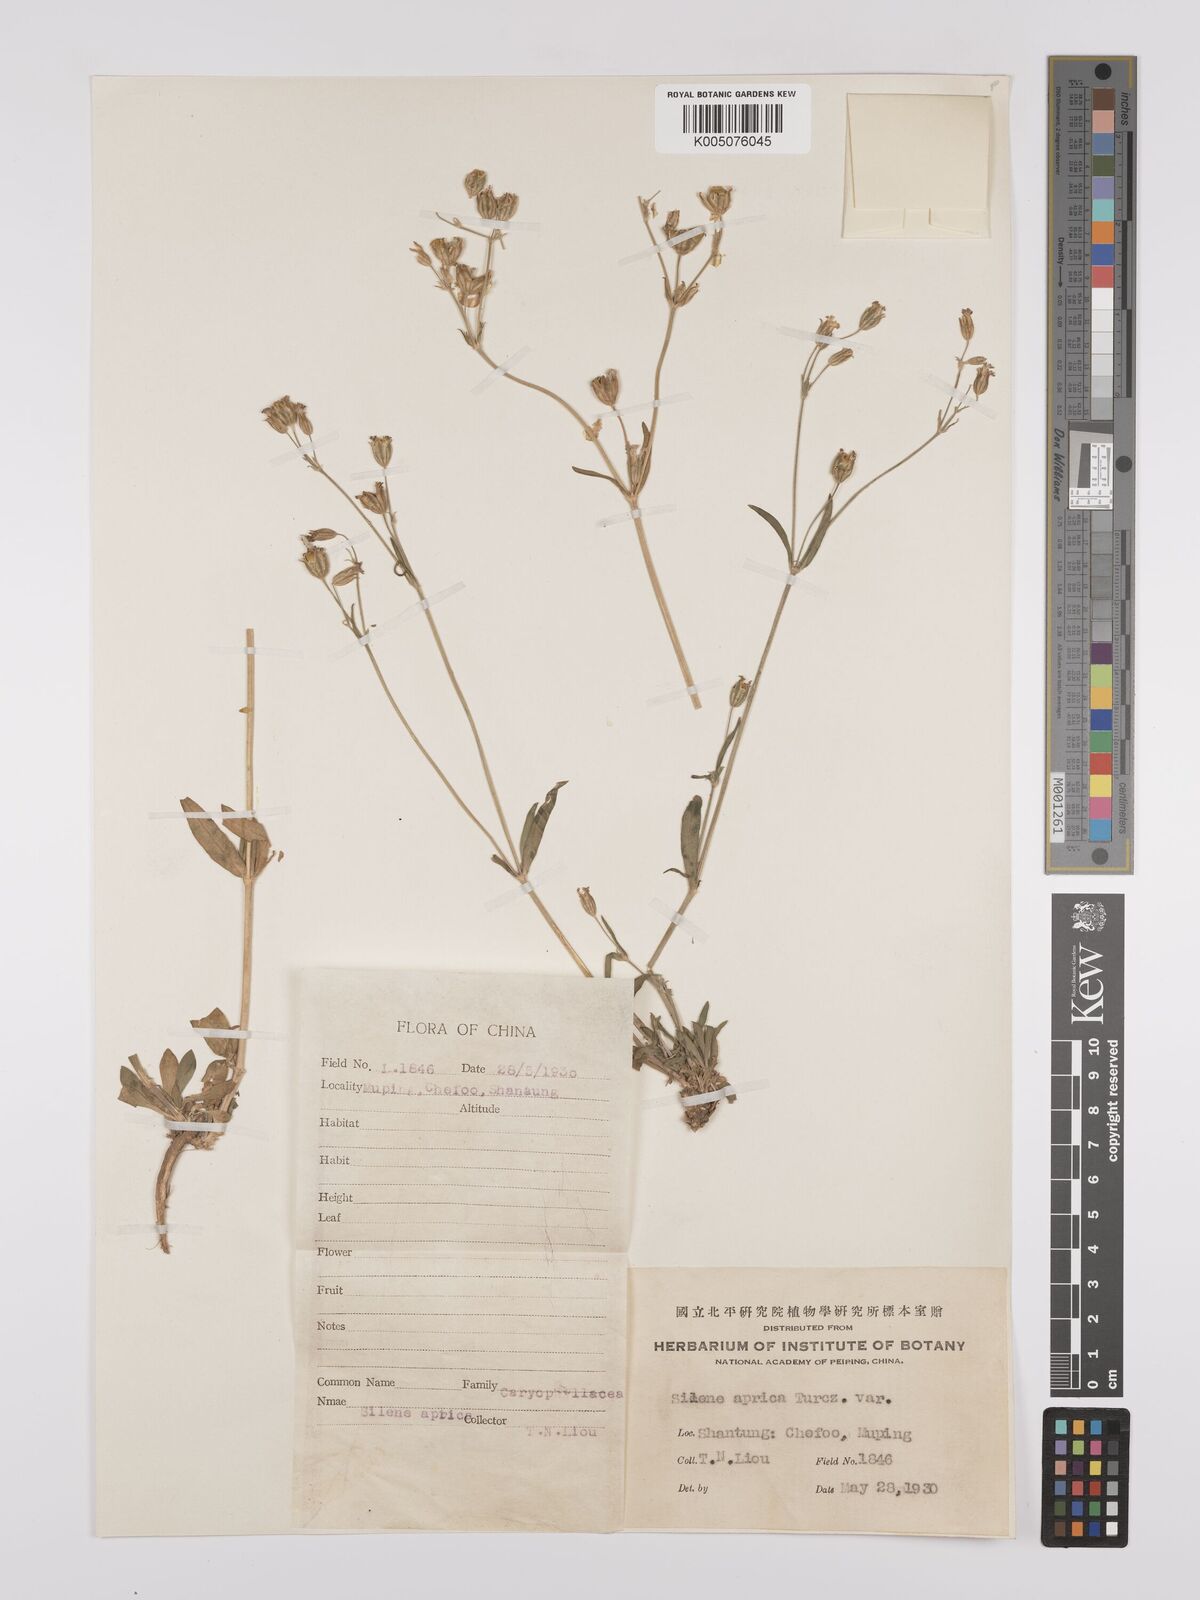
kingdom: Plantae
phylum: Tracheophyta
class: Magnoliopsida
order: Caryophyllales
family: Caryophyllaceae
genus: Silene
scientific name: Silene aprica
